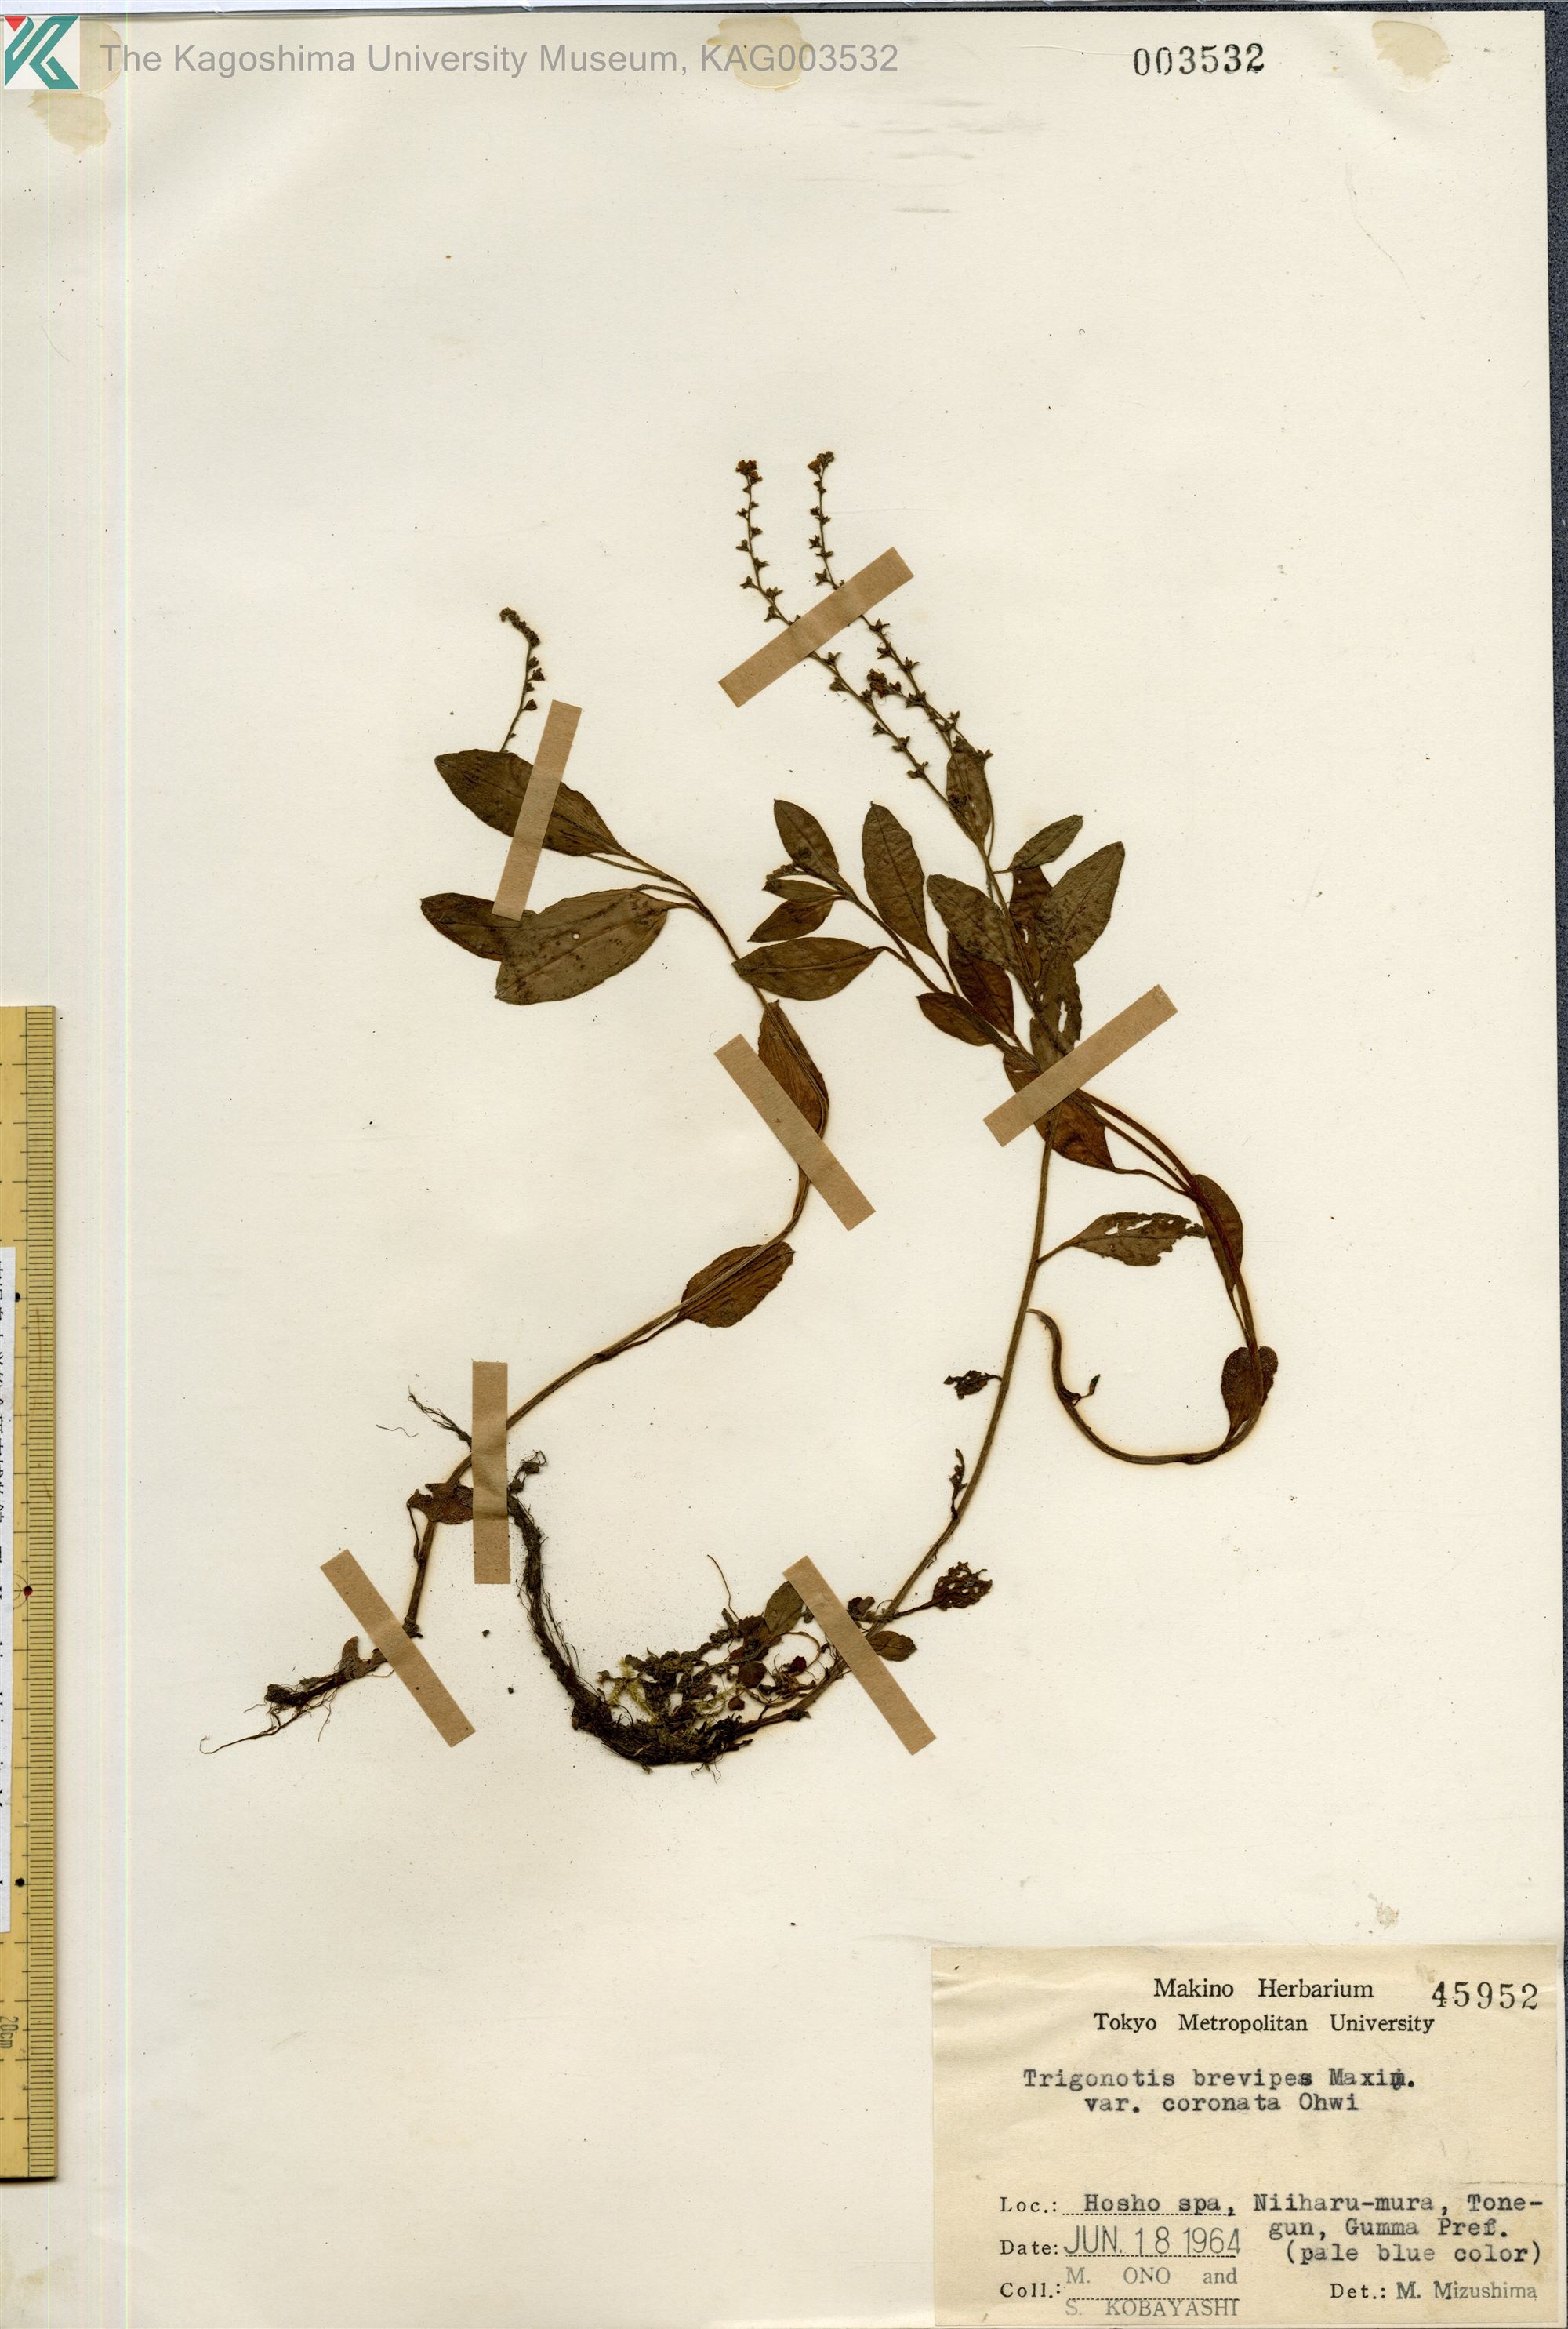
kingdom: Plantae
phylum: Tracheophyta
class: Magnoliopsida
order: Boraginales
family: Boraginaceae
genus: Trigonotis
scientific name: Trigonotis brevipes
